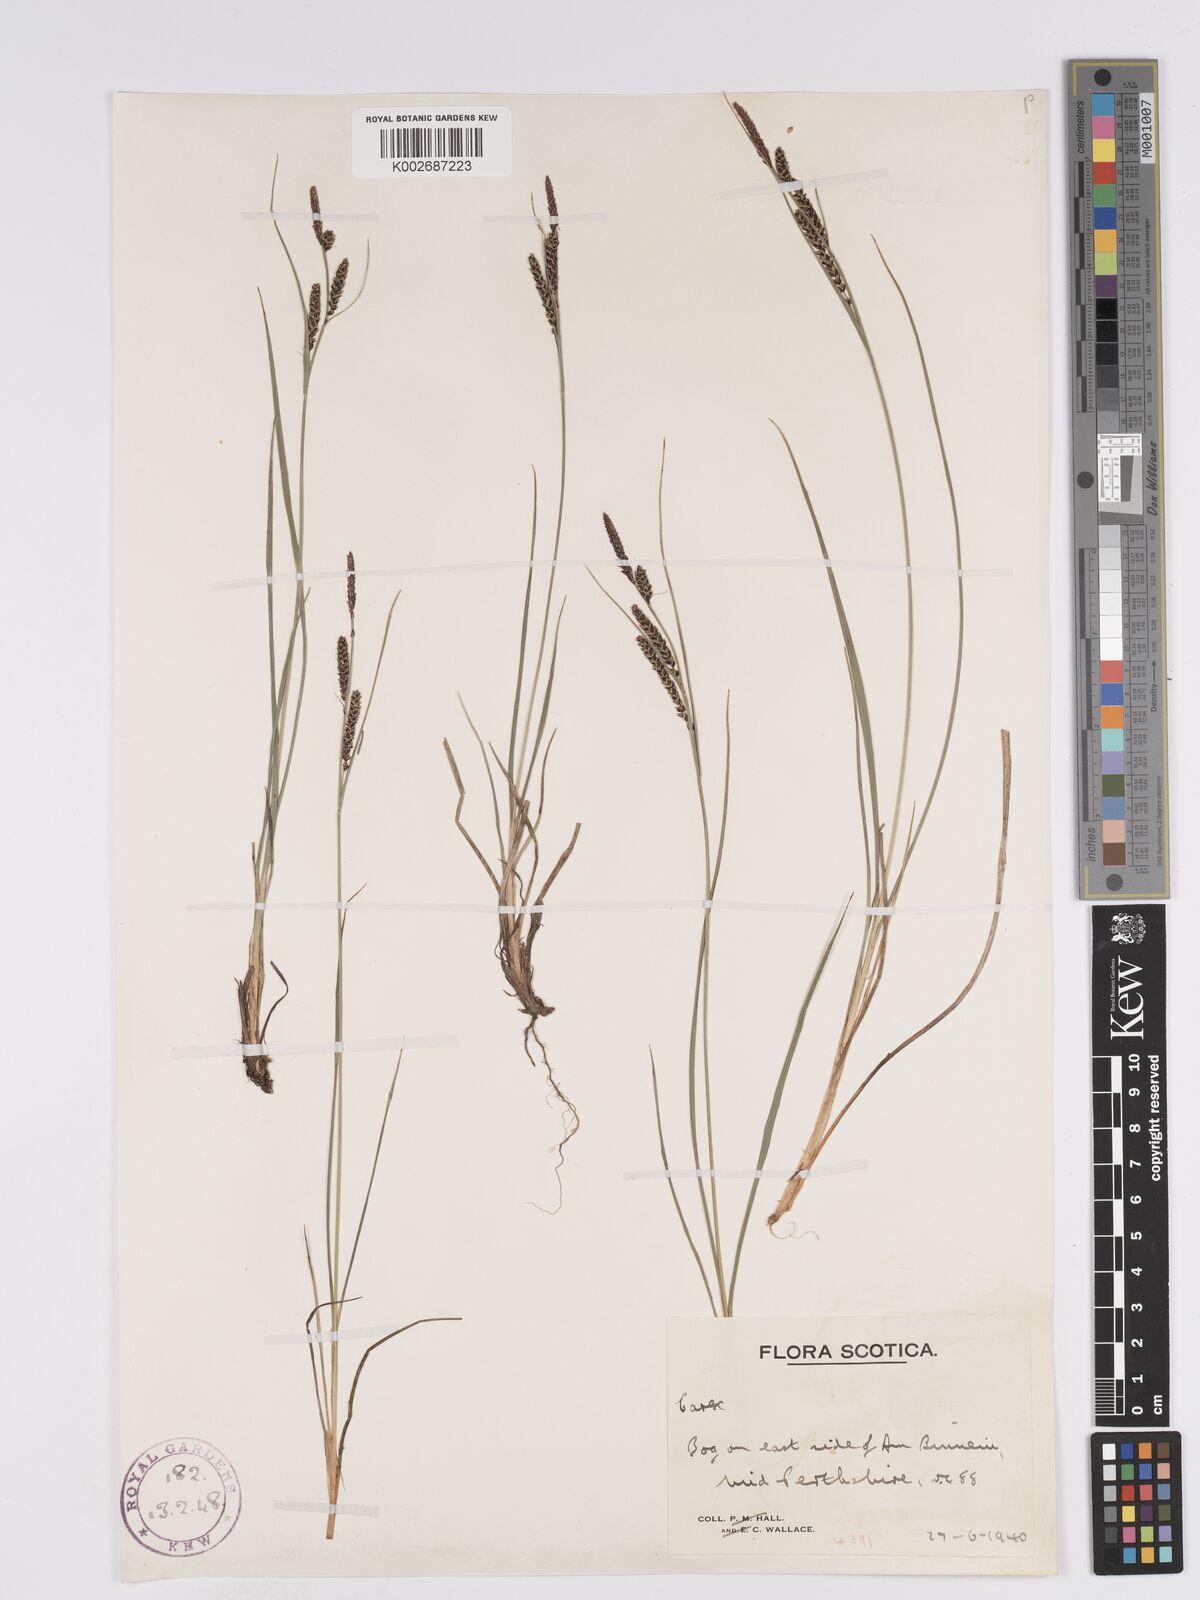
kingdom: Plantae
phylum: Tracheophyta
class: Liliopsida
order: Poales
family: Cyperaceae
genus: Carex
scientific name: Carex nigra
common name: Common sedge
